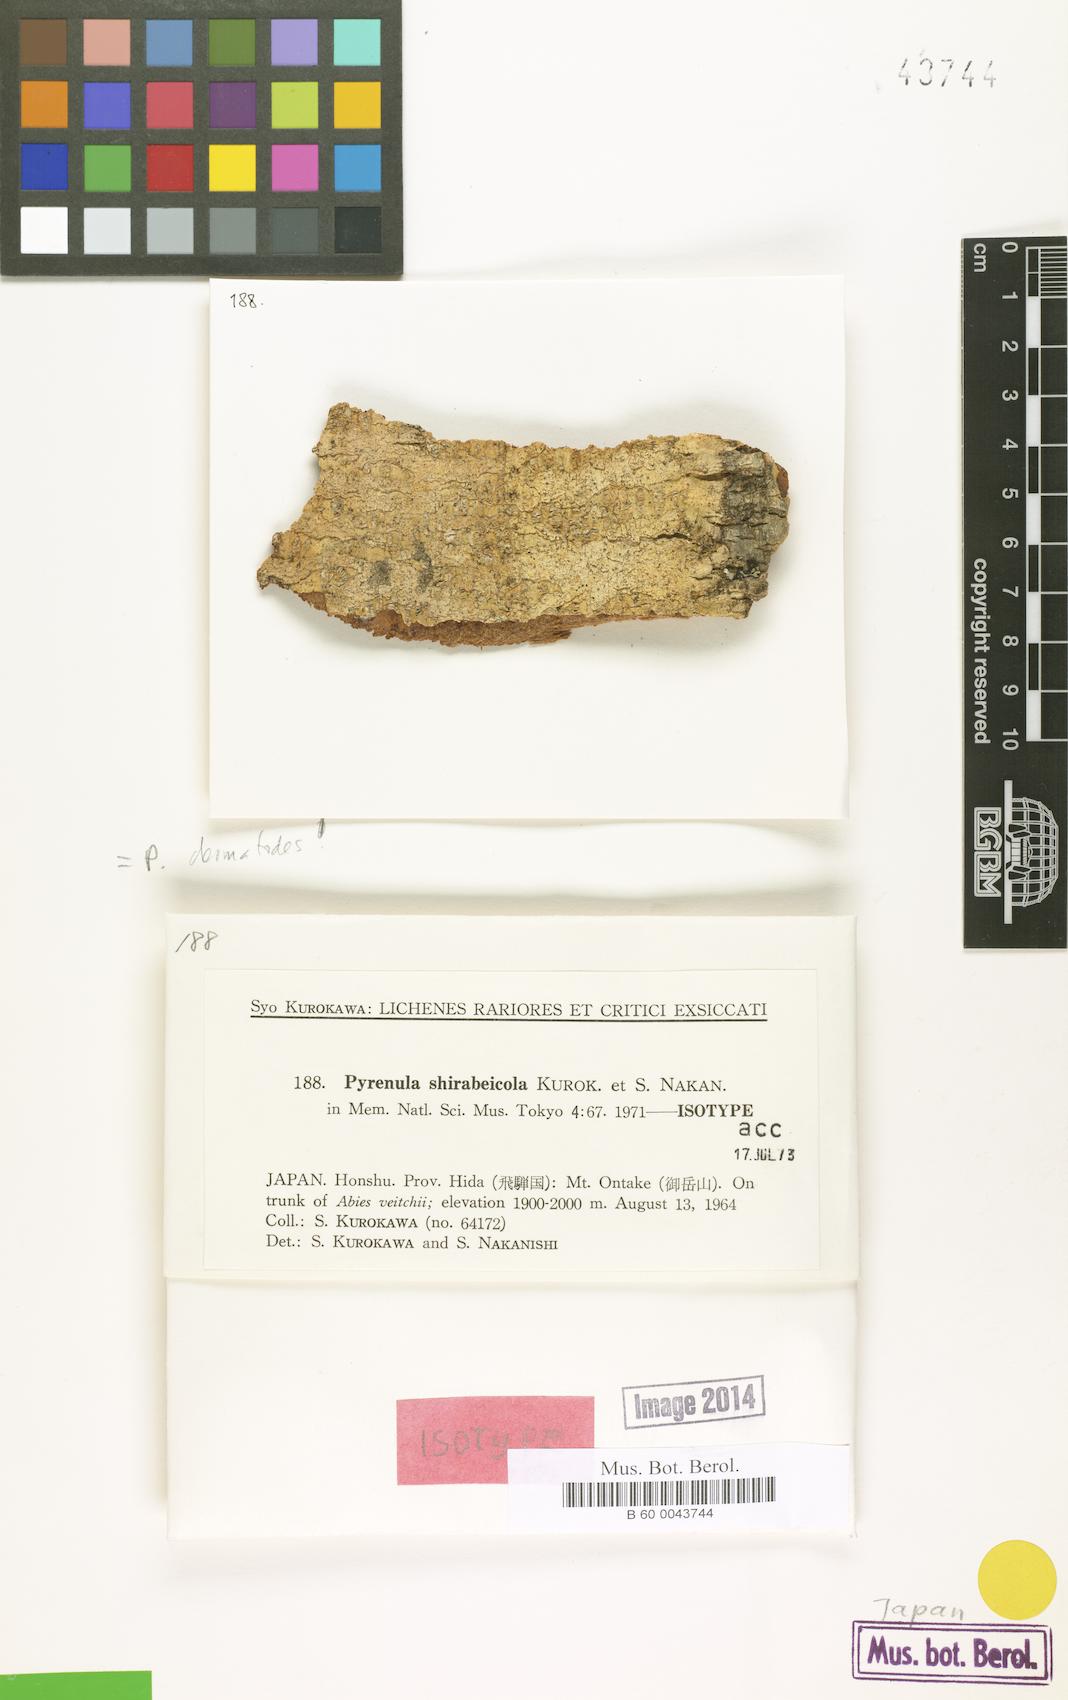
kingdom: Fungi
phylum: Ascomycota
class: Eurotiomycetes
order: Pyrenulales
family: Pyrenulaceae
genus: Pyrenula
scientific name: Pyrenula shirabeicola
